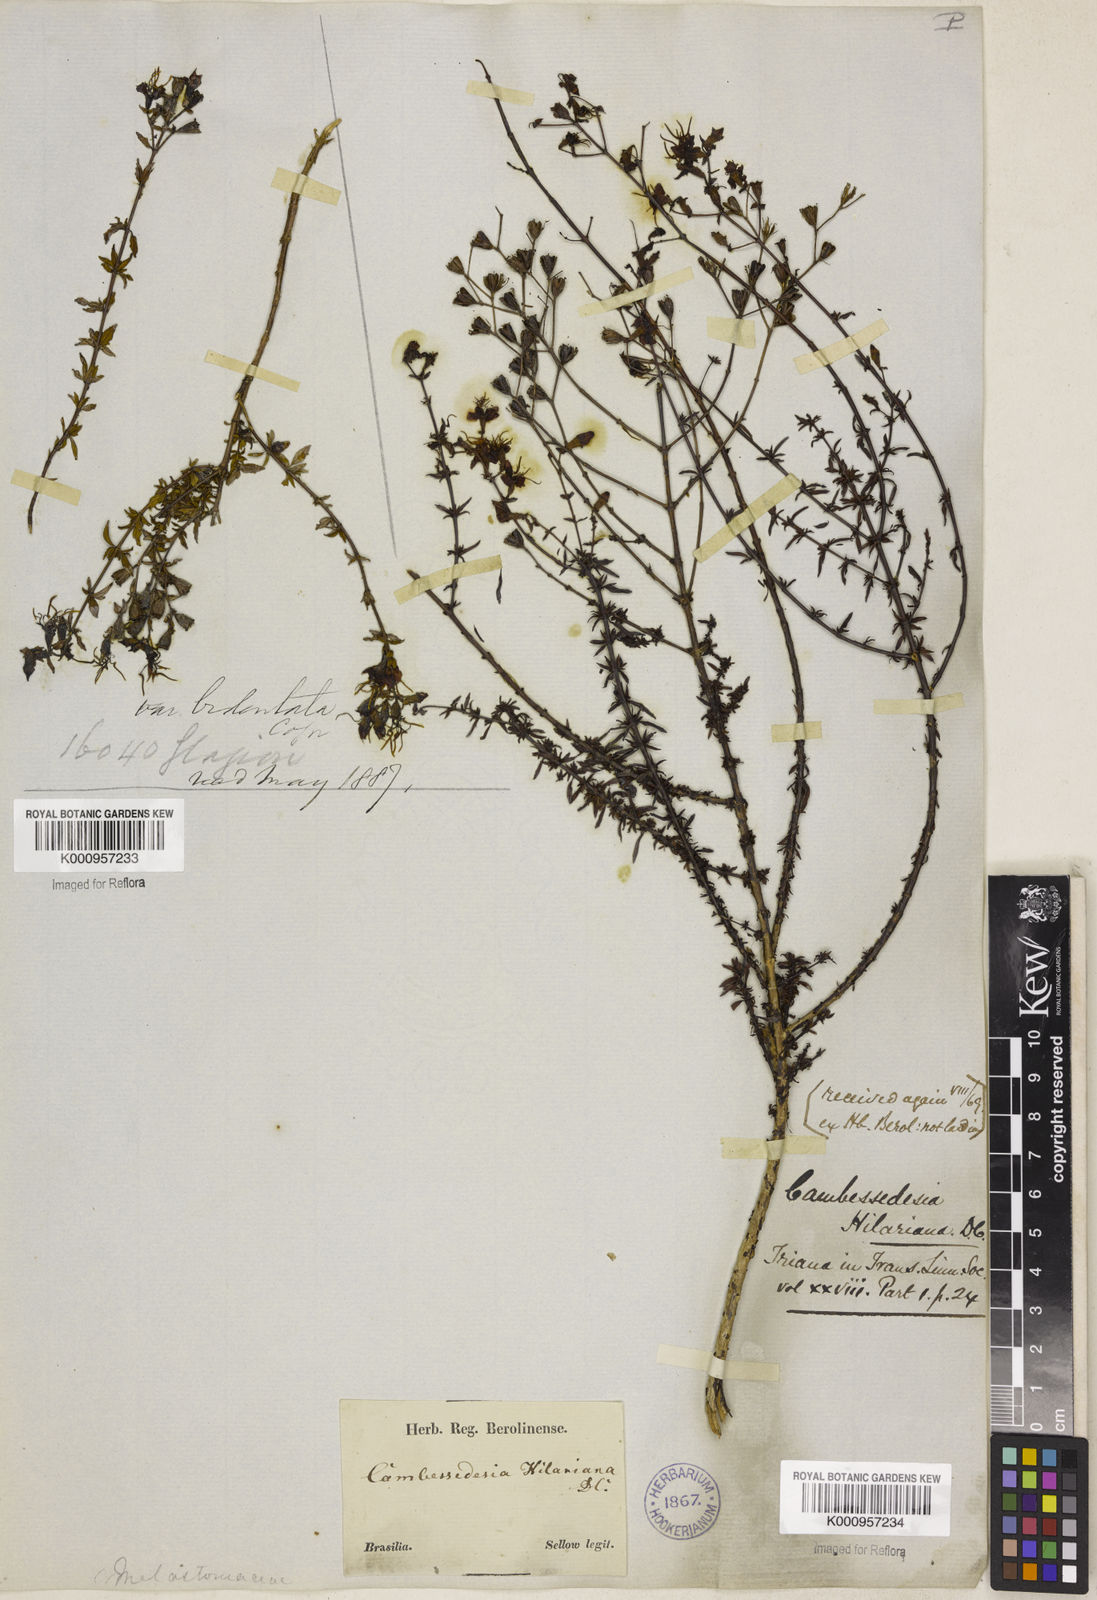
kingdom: Plantae
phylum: Tracheophyta
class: Magnoliopsida
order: Myrtales
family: Melastomataceae
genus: Cambessedesia
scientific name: Cambessedesia hilariana
